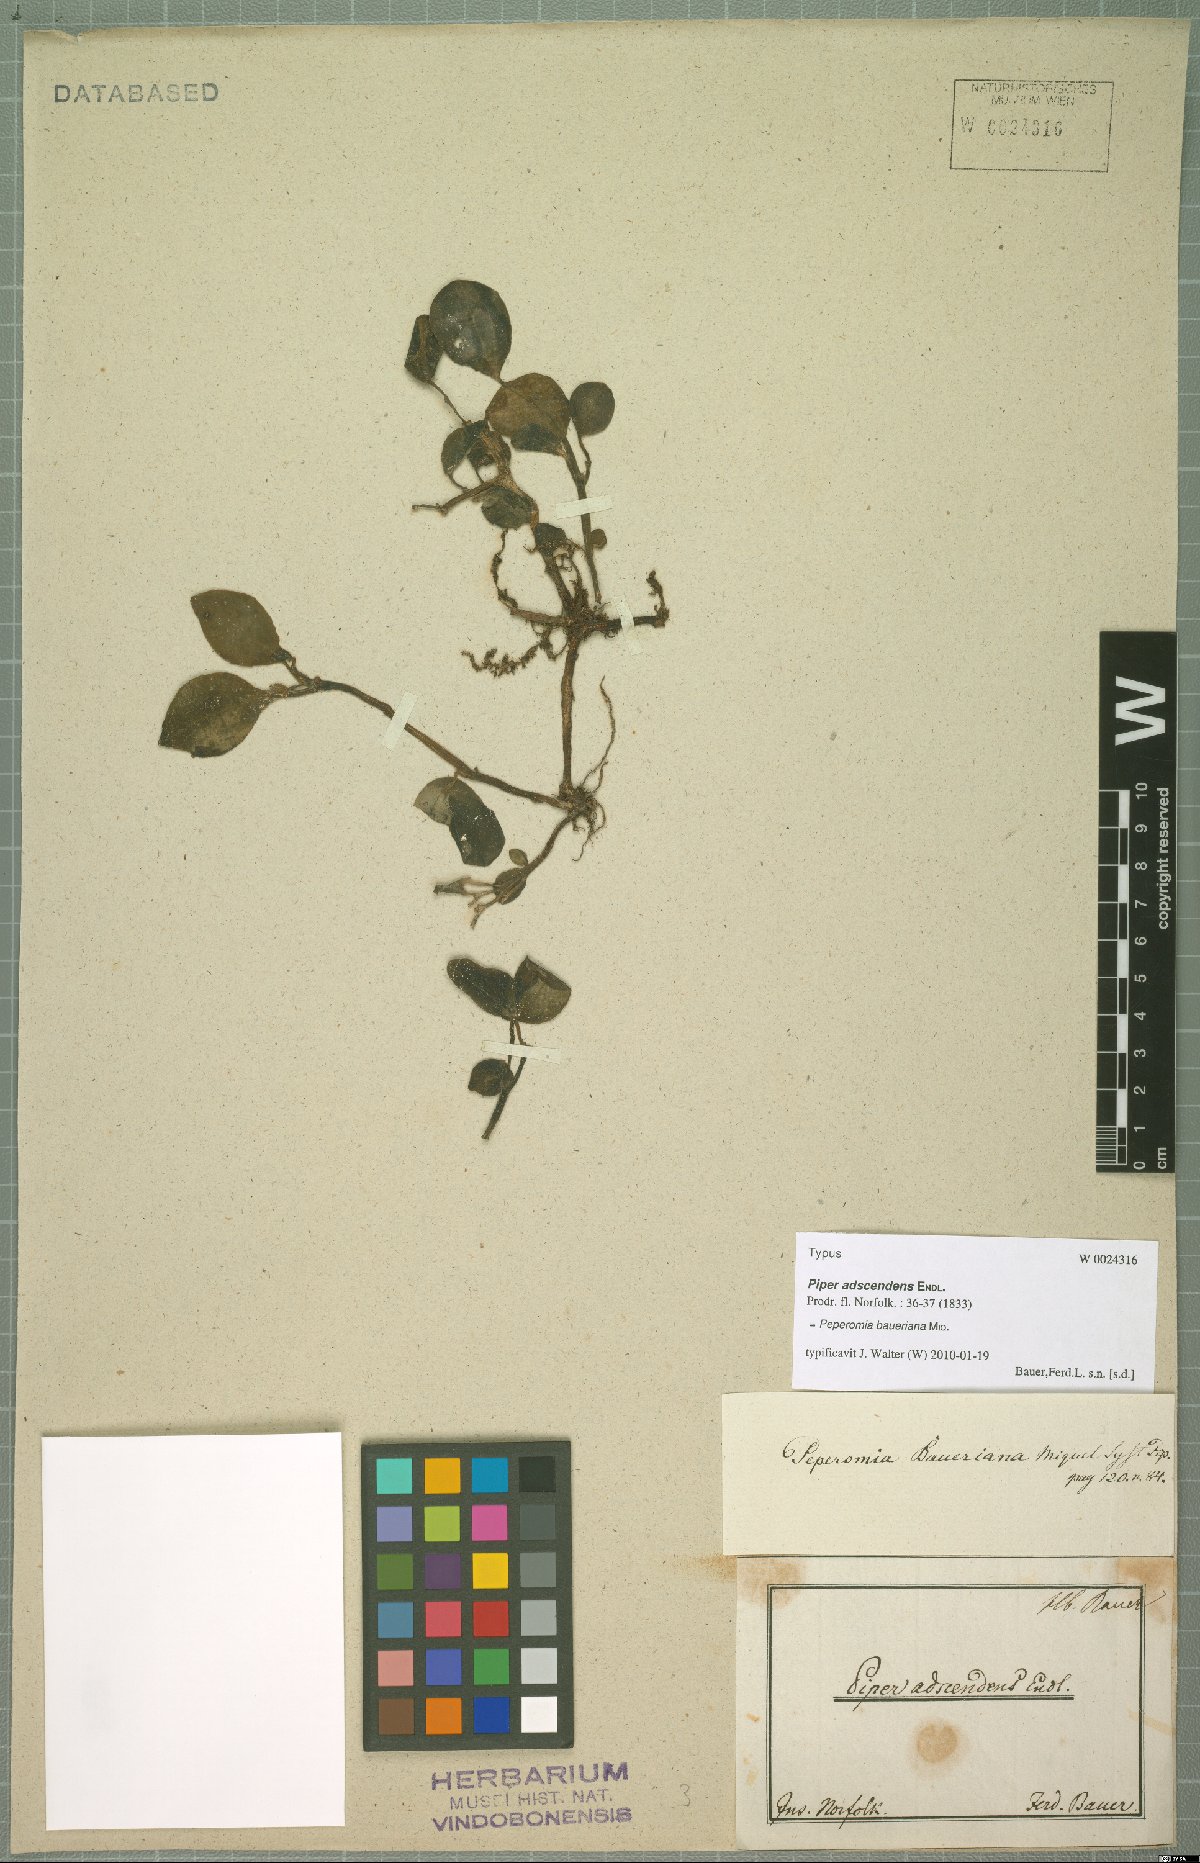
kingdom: Plantae
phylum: Tracheophyta
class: Magnoliopsida
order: Piperales
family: Piperaceae
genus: Peperomia
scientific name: Peperomia baueriana
